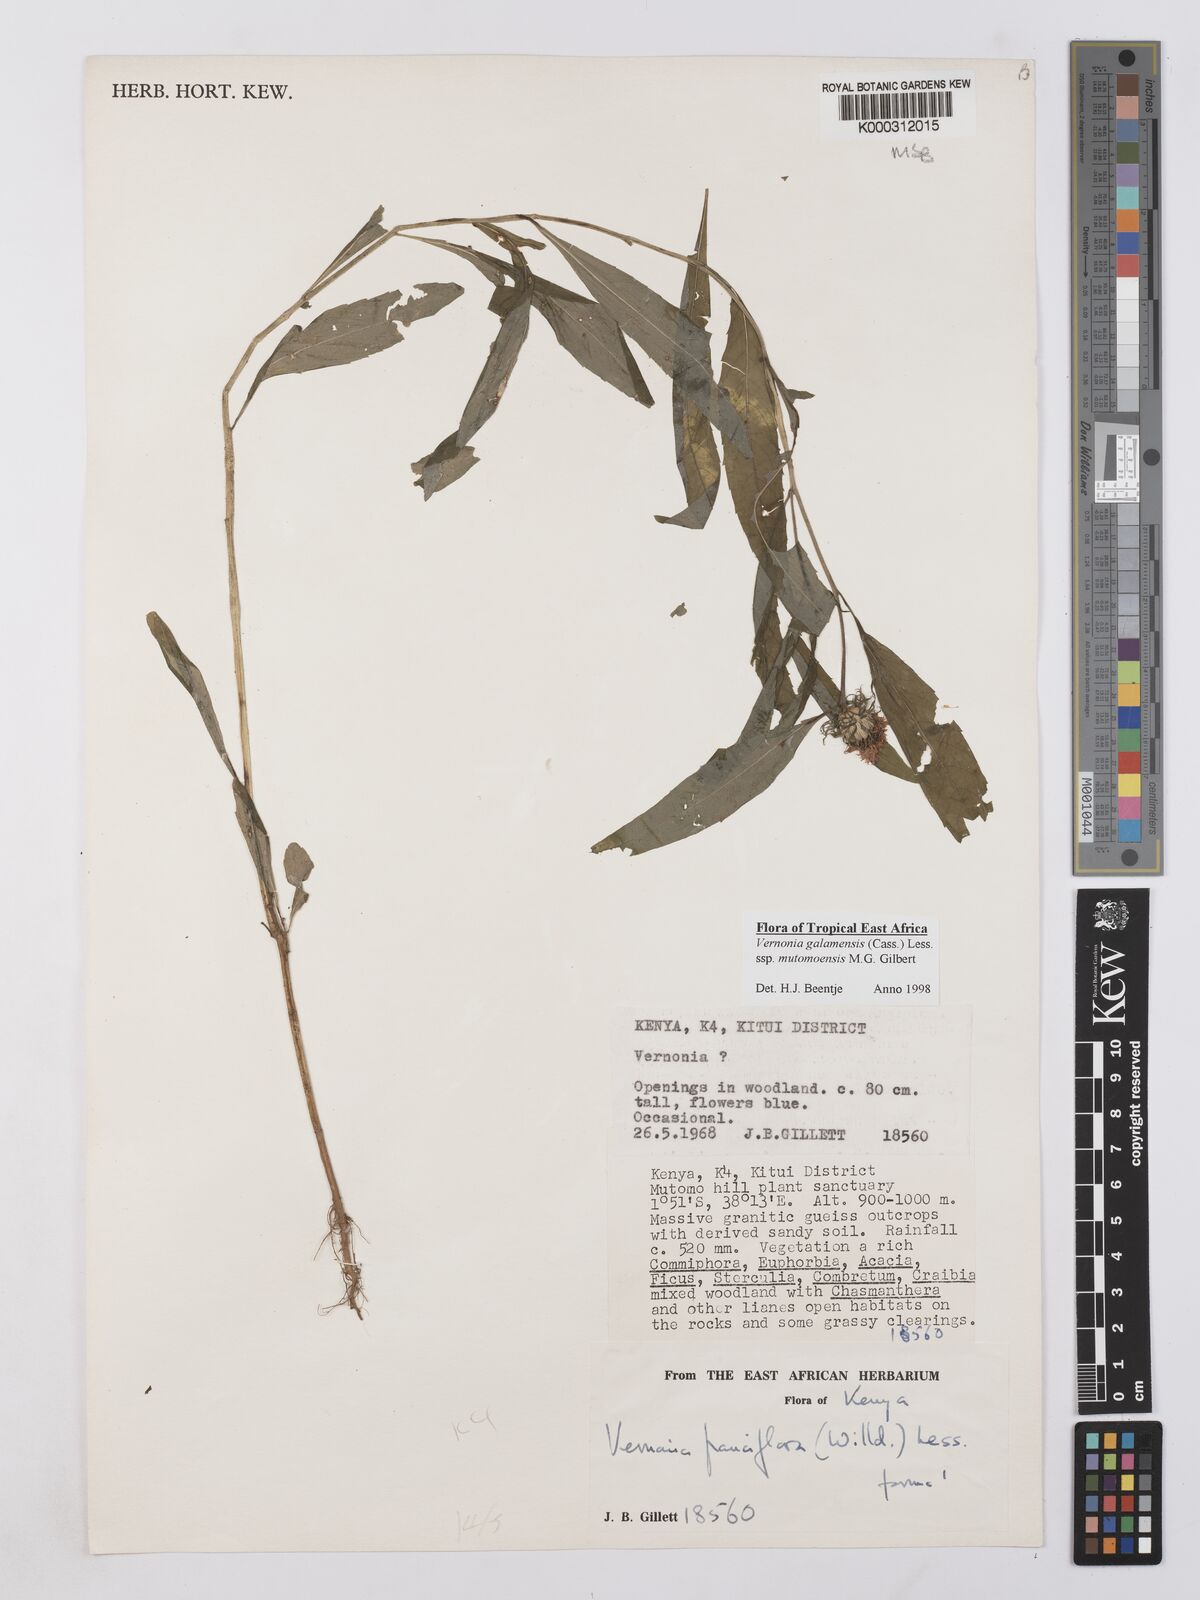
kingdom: Plantae
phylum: Tracheophyta
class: Magnoliopsida
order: Asterales
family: Asteraceae
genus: Vernonia
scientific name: Vernonia galamensis
